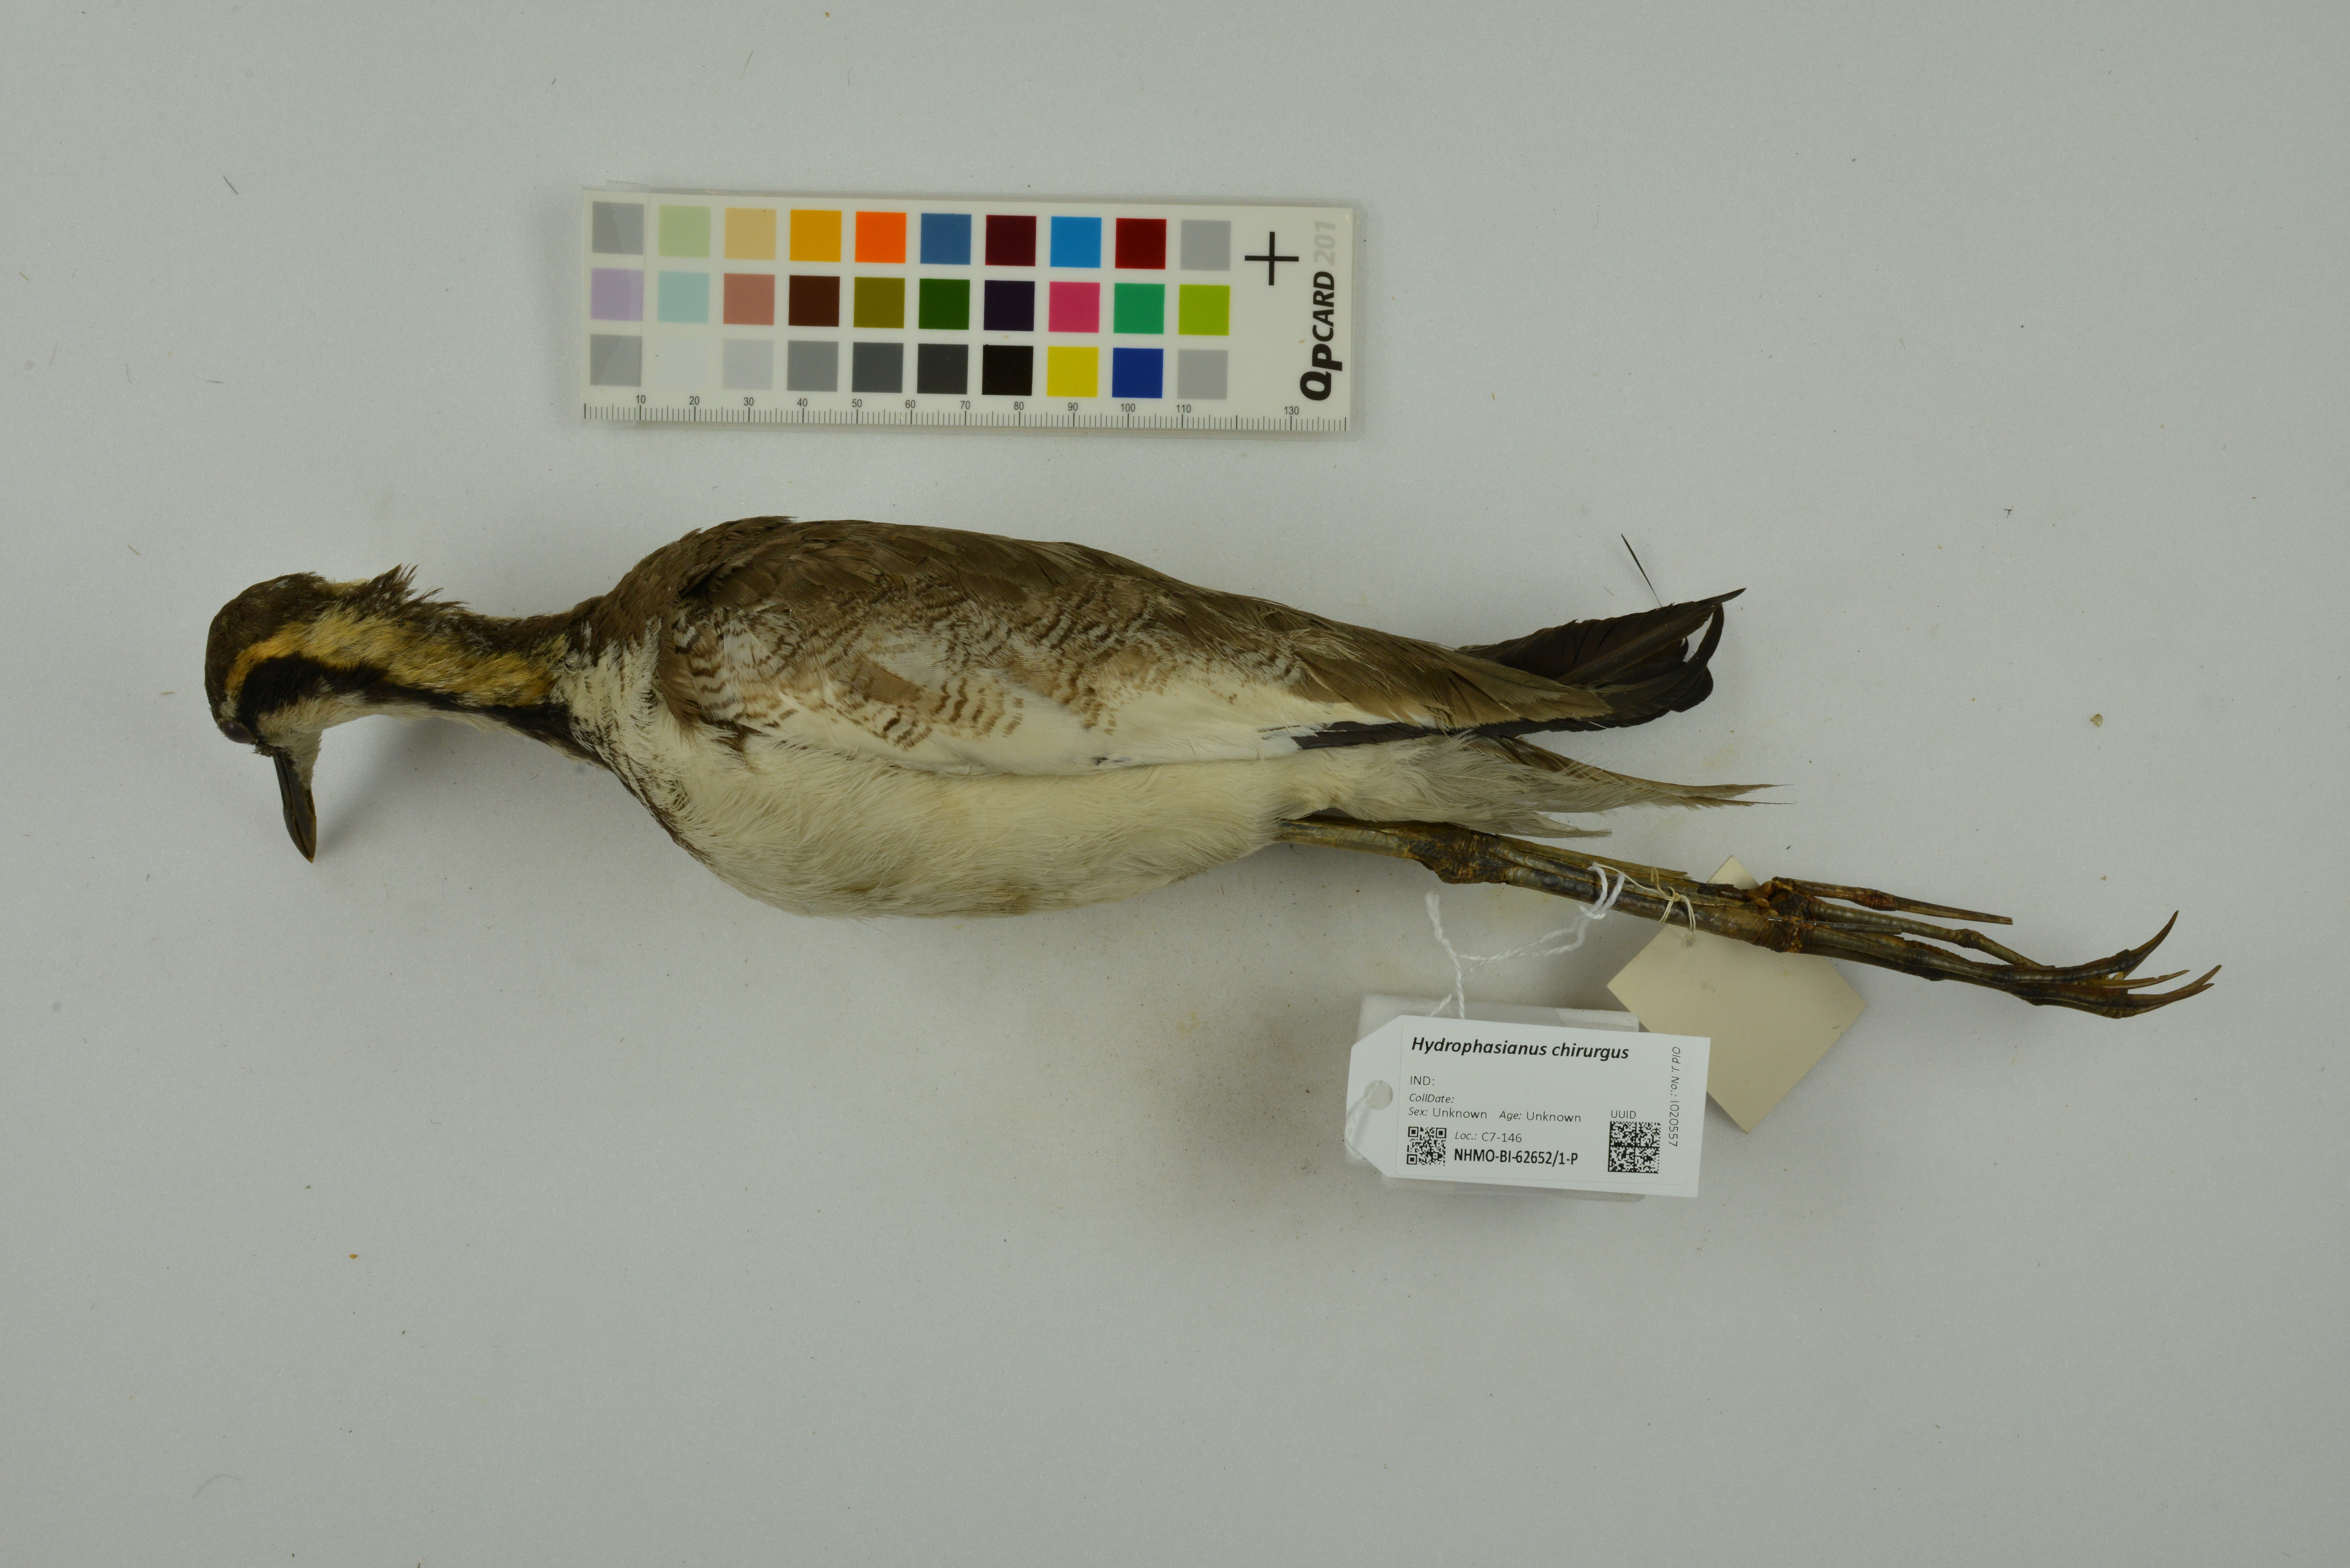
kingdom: Animalia
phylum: Chordata
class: Aves
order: Charadriiformes
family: Jacanidae
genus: Hydrophasianus
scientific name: Hydrophasianus chirurgus
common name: Pheasant-tailed jacana
